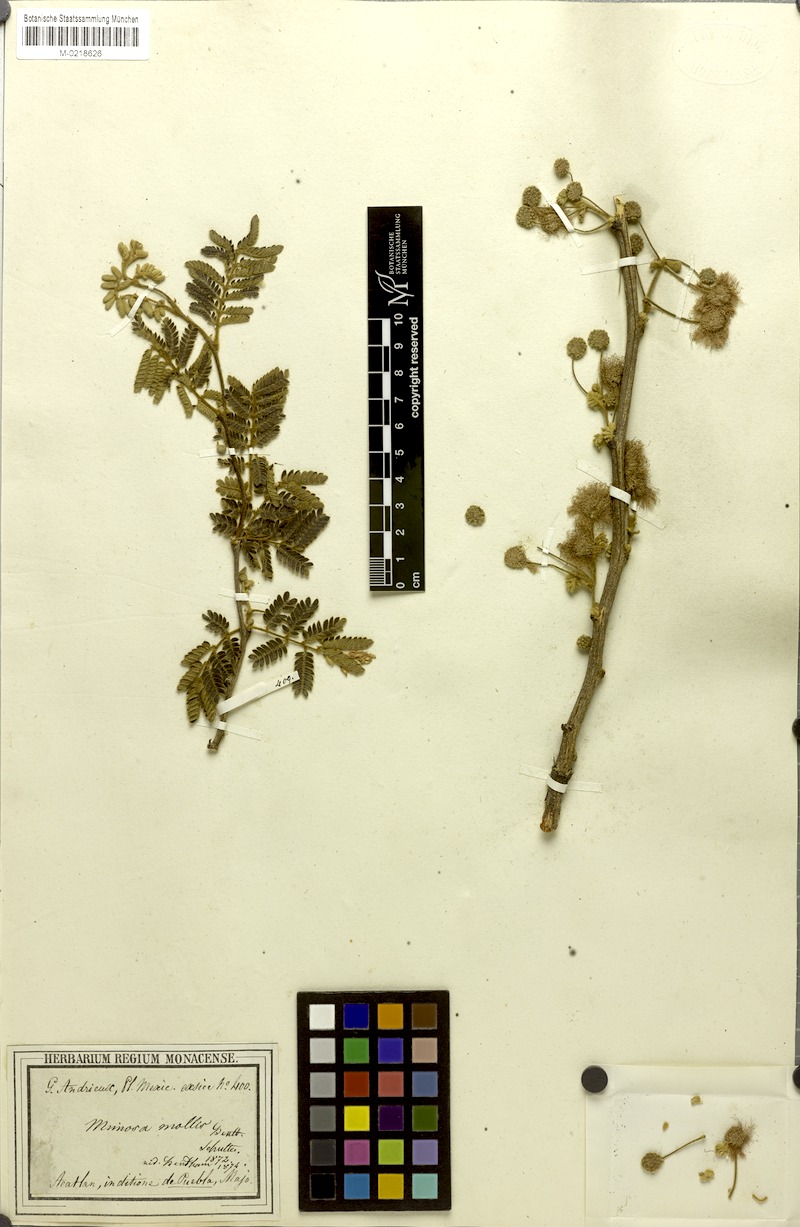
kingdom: Plantae
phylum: Tracheophyta
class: Magnoliopsida
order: Fabales
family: Fabaceae
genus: Mimosa
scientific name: Mimosa mollis
